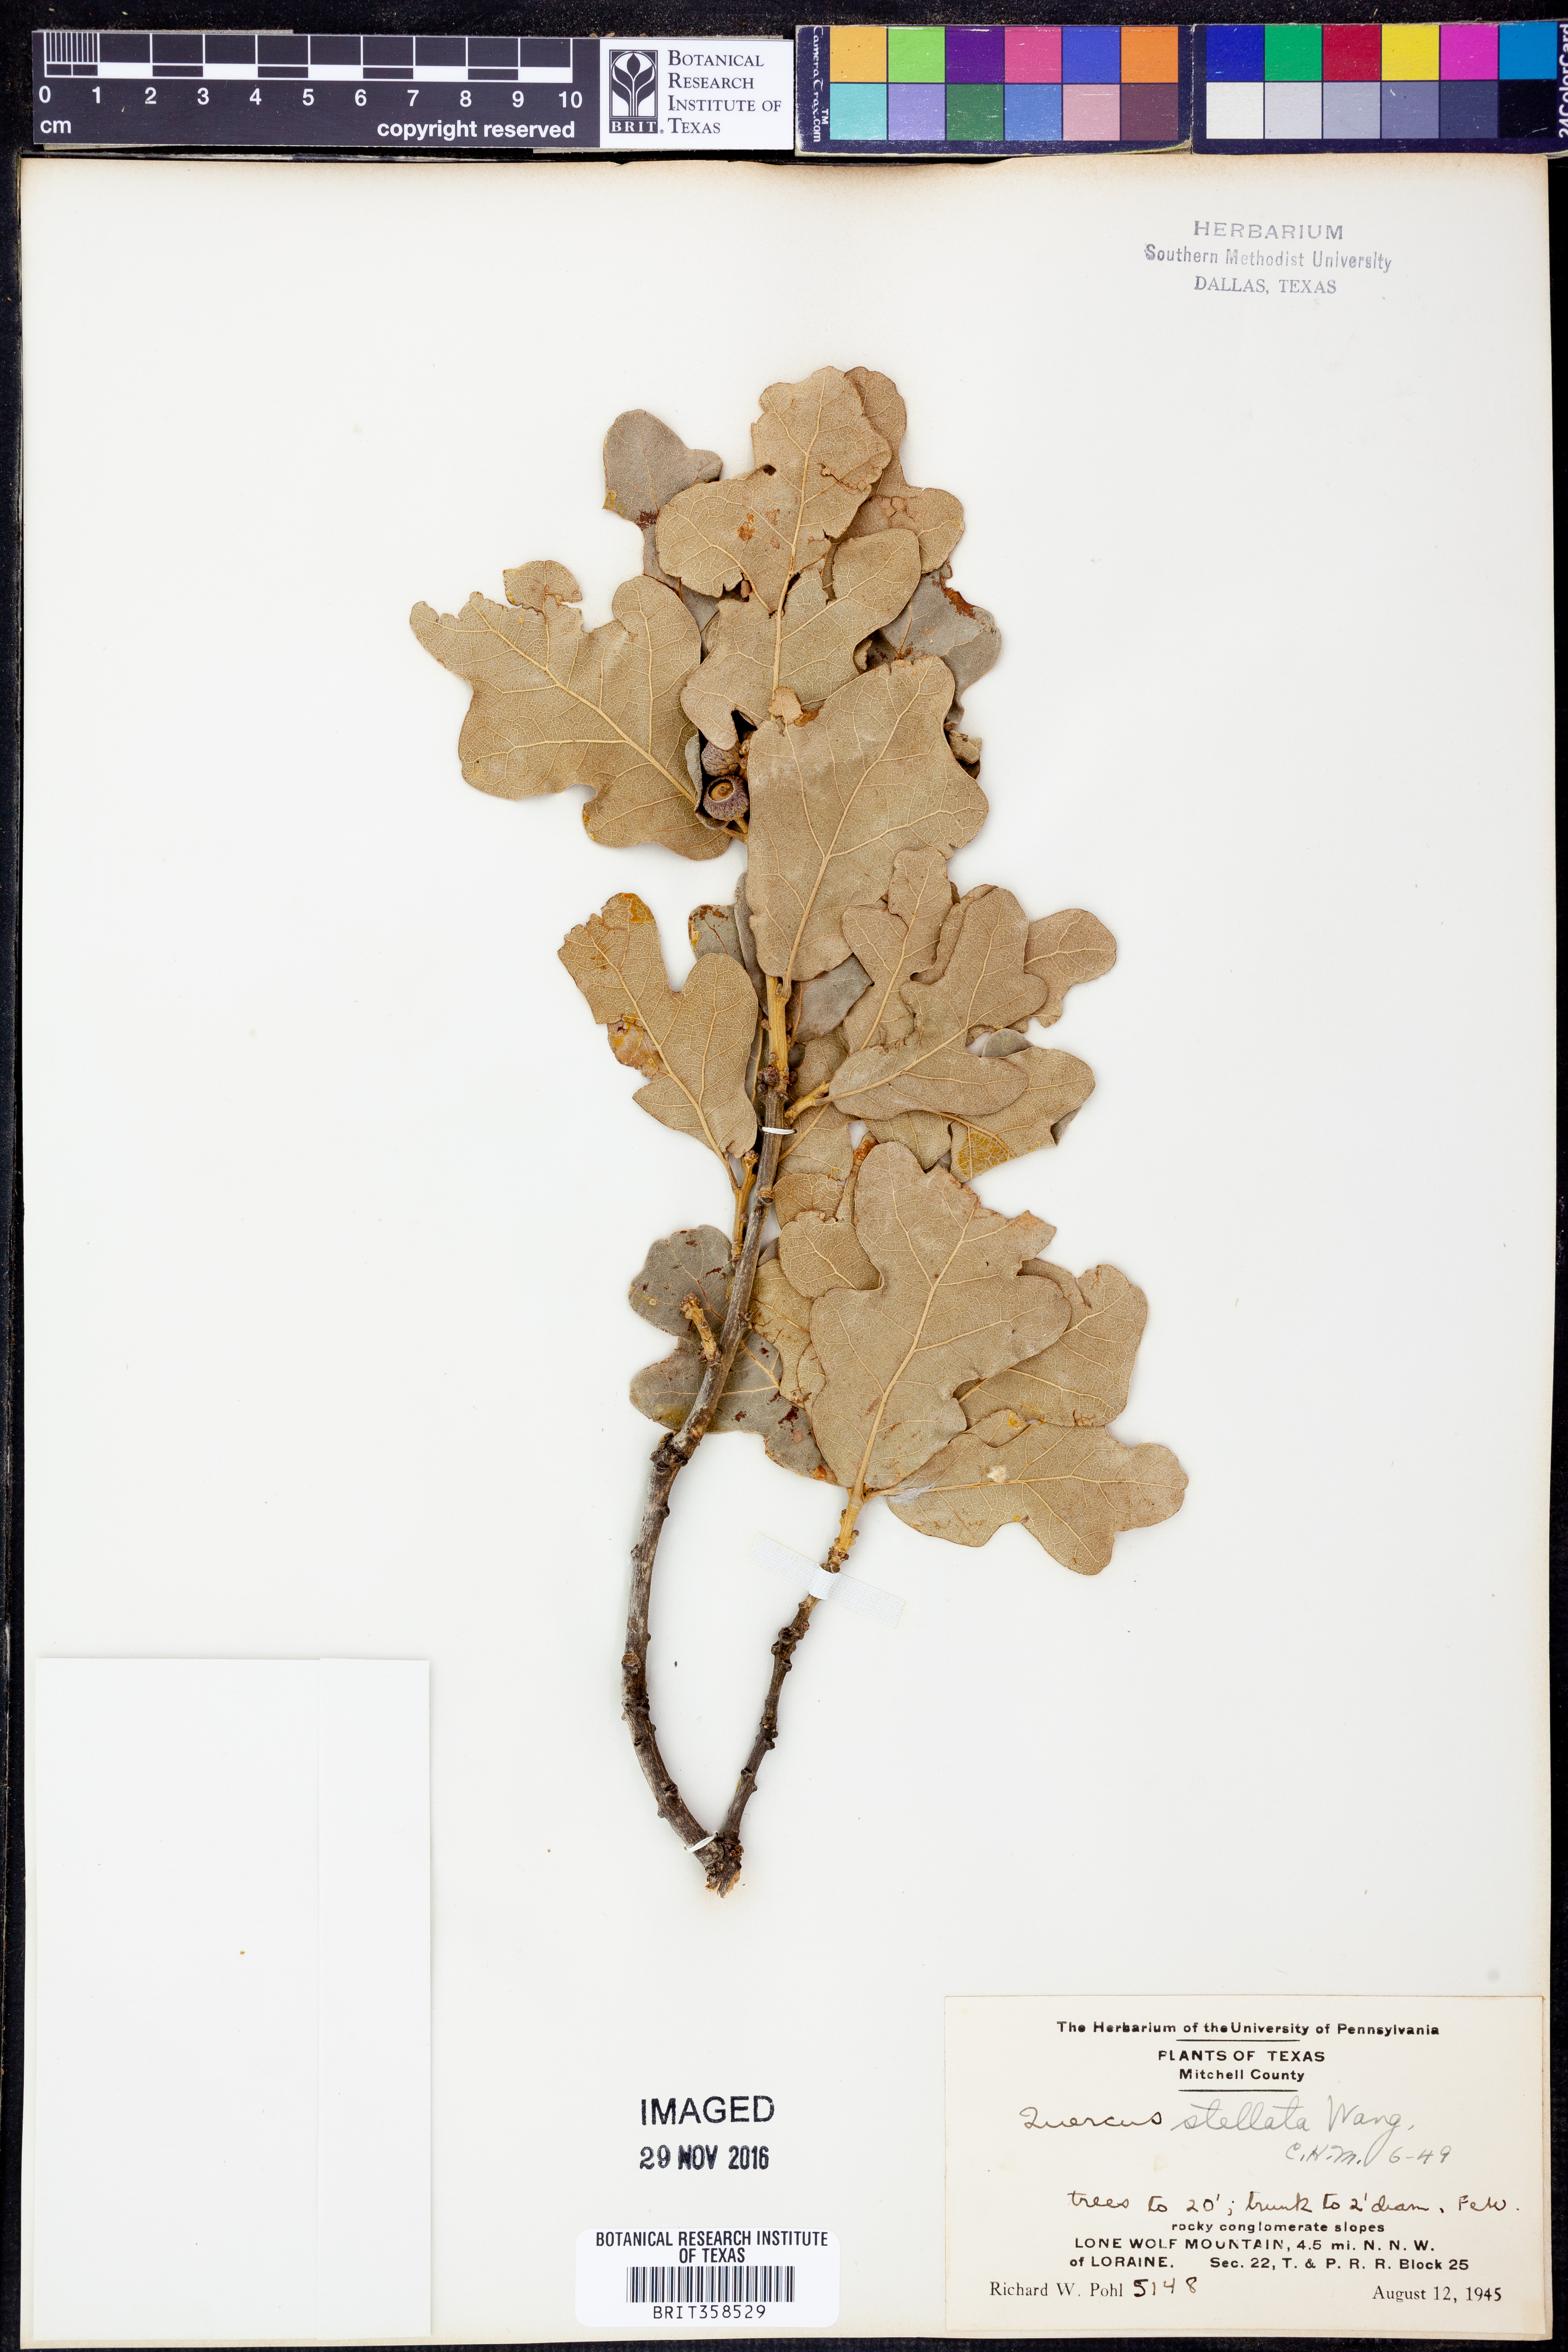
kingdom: Plantae
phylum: Tracheophyta
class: Magnoliopsida
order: Fagales
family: Fagaceae
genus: Quercus
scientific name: Quercus stellata
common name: Post oak
